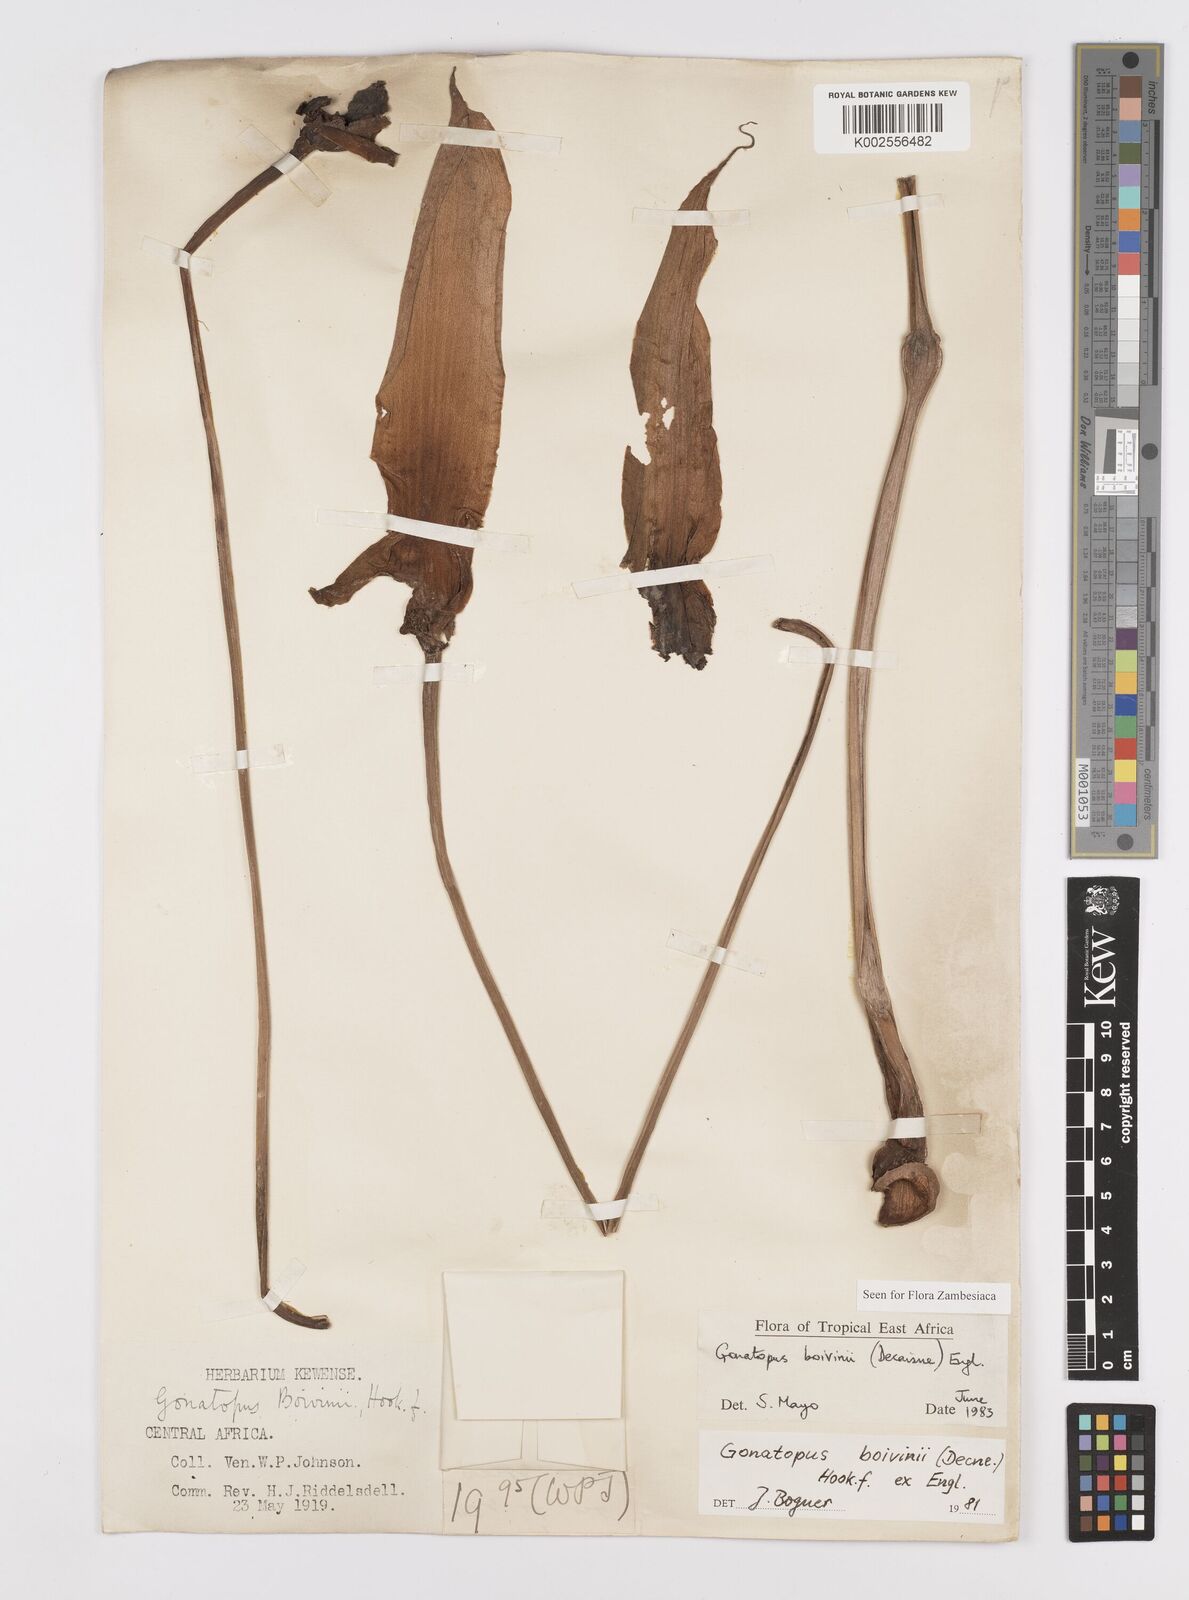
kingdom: Plantae
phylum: Tracheophyta
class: Liliopsida
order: Alismatales
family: Araceae
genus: Gonatopus
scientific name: Gonatopus boivinii
